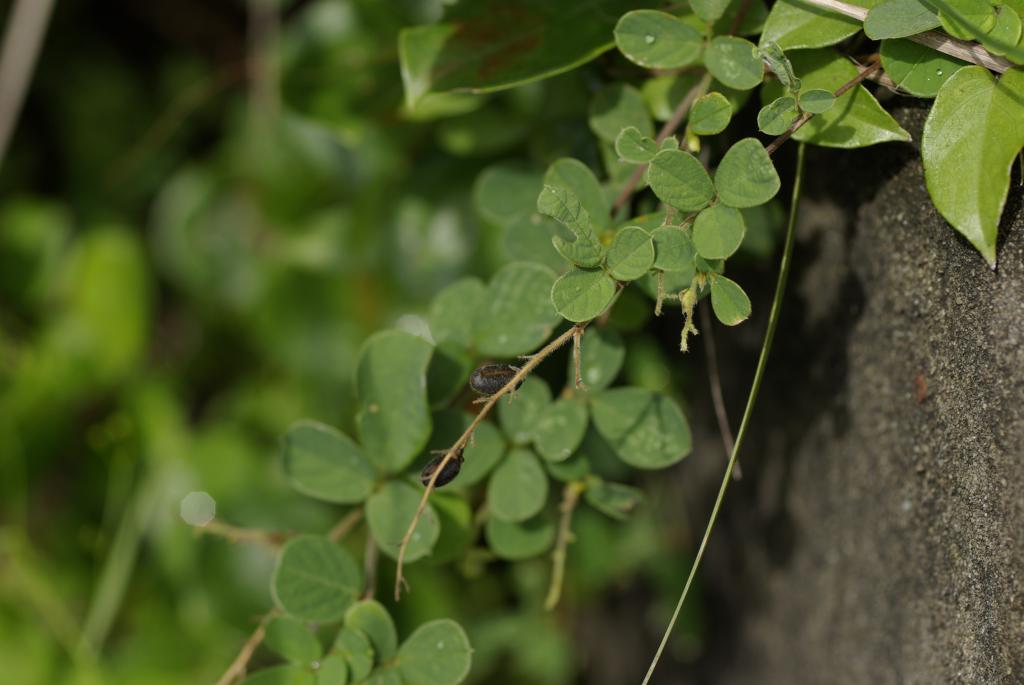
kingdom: Plantae
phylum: Tracheophyta
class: Magnoliopsida
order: Fabales
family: Fabaceae
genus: Pycnospora
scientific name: Pycnospora lutescens
